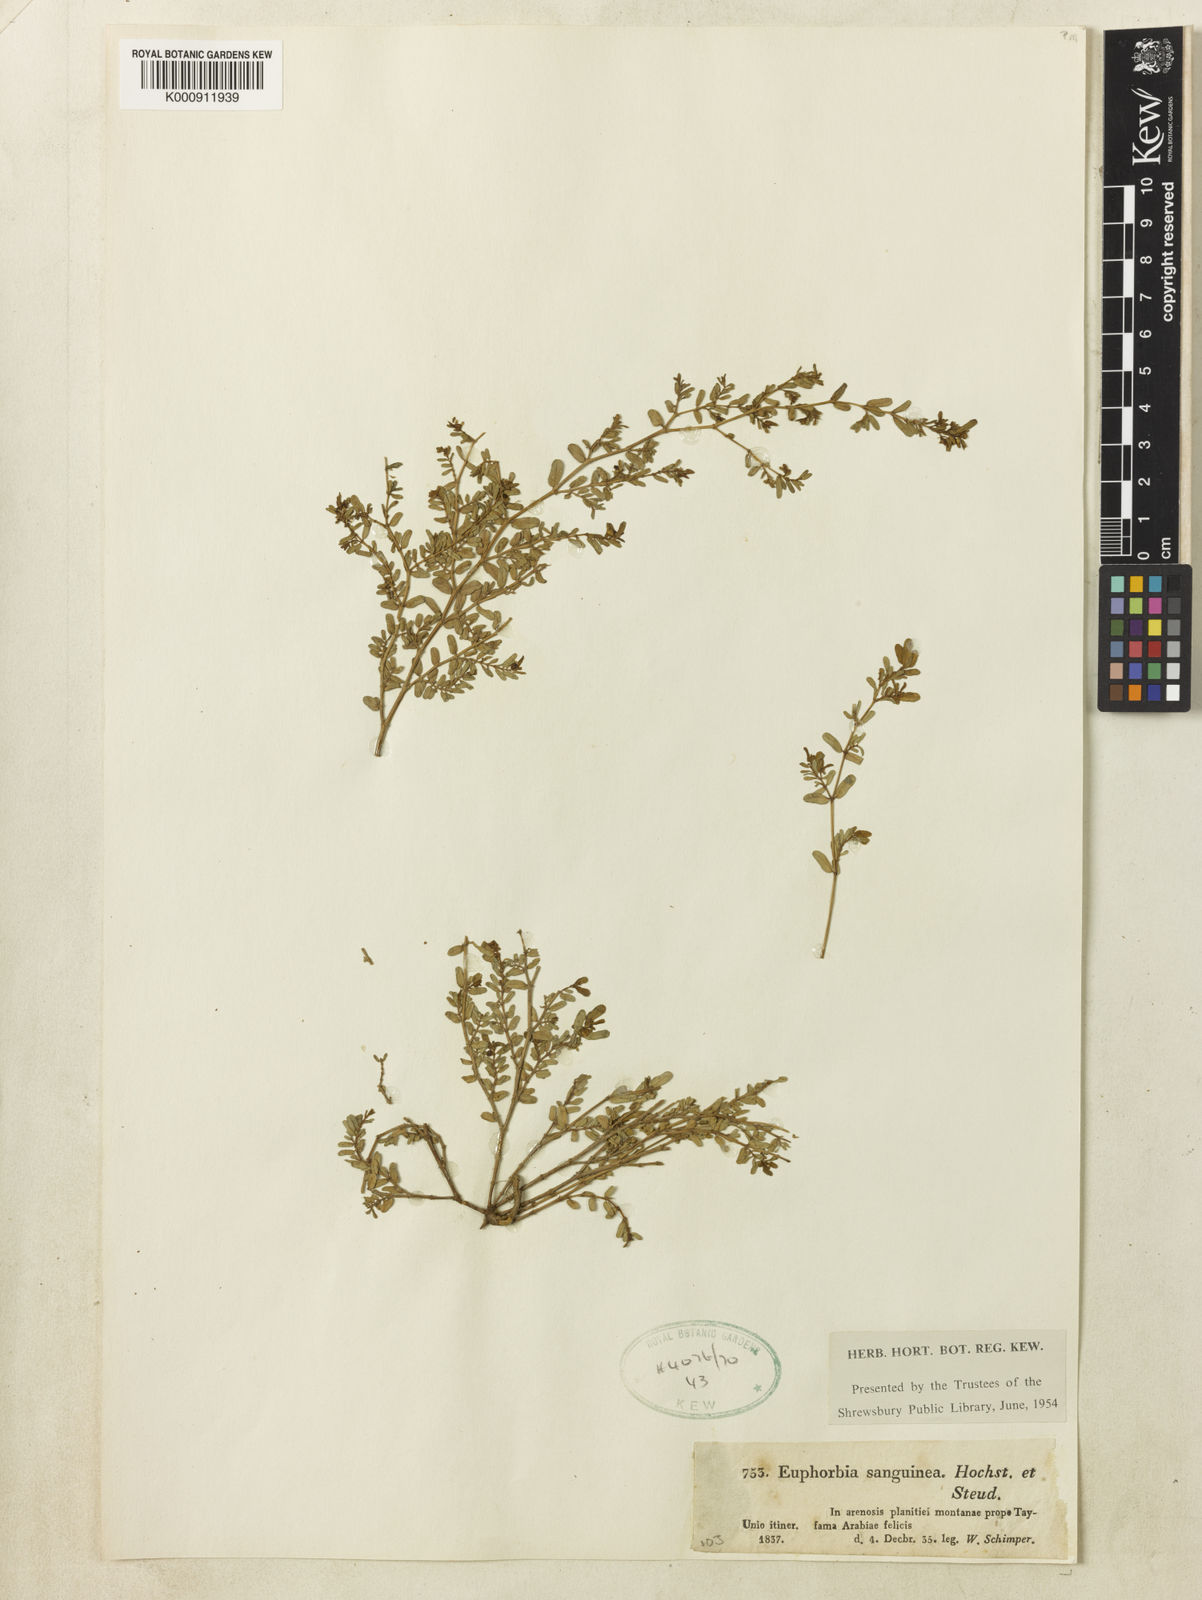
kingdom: Plantae
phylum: Tracheophyta
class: Magnoliopsida
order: Malpighiales
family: Euphorbiaceae
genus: Euphorbia
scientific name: Euphorbia
